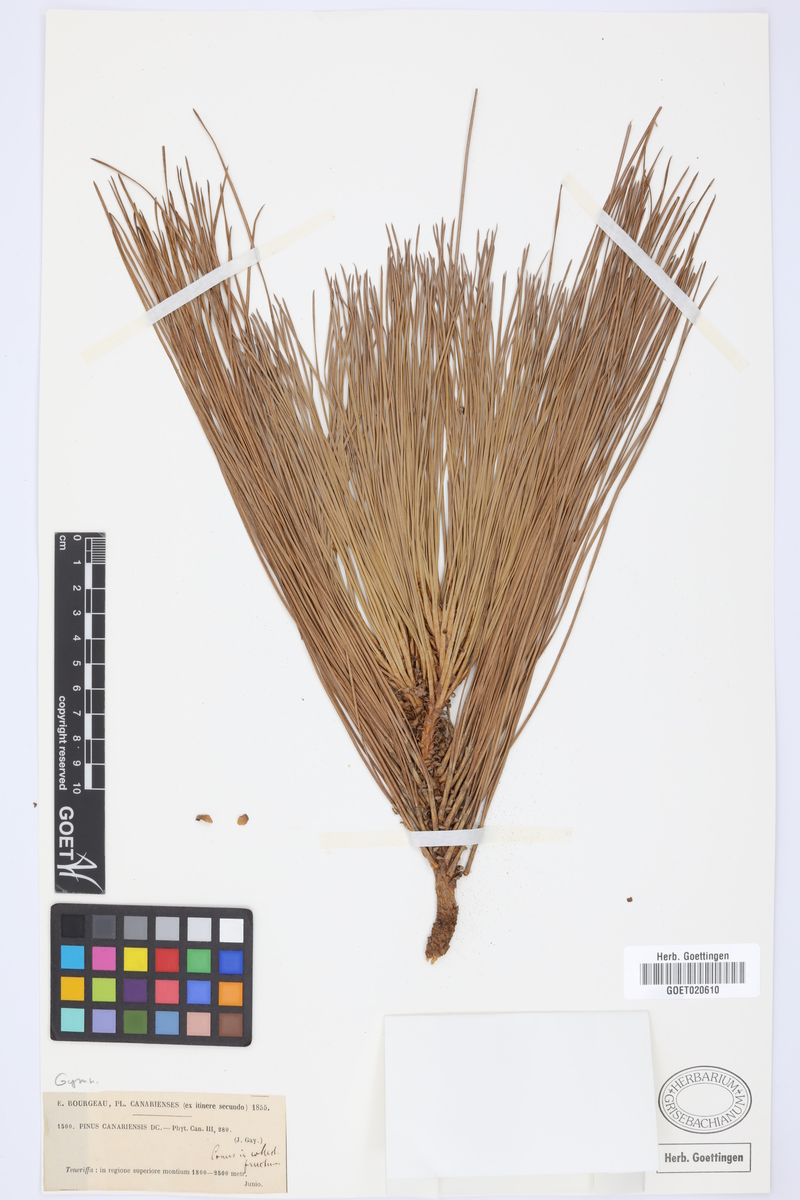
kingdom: Plantae
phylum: Tracheophyta
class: Pinopsida
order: Pinales
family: Pinaceae
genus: Pinus
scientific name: Pinus canariensis
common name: Canary islands pine
